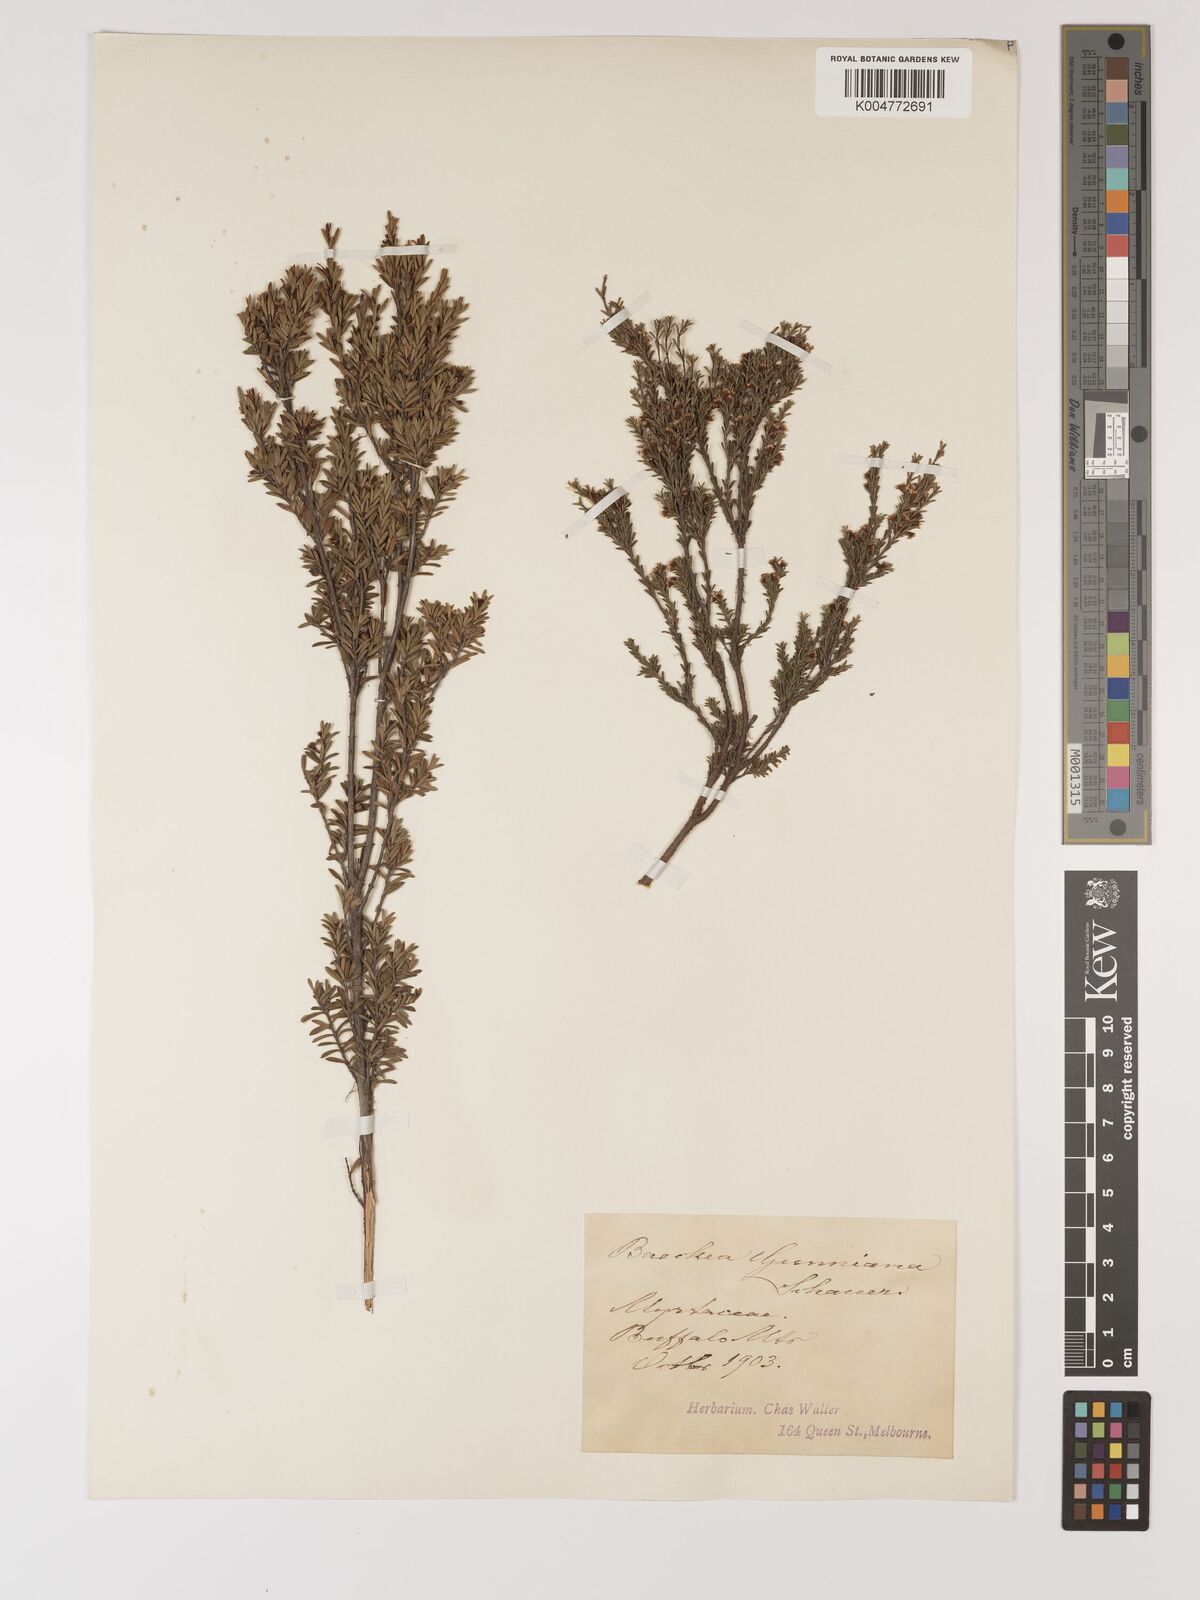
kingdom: Plantae
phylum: Tracheophyta
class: Magnoliopsida
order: Myrtales
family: Myrtaceae
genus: Baeckea
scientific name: Baeckea gunniana
